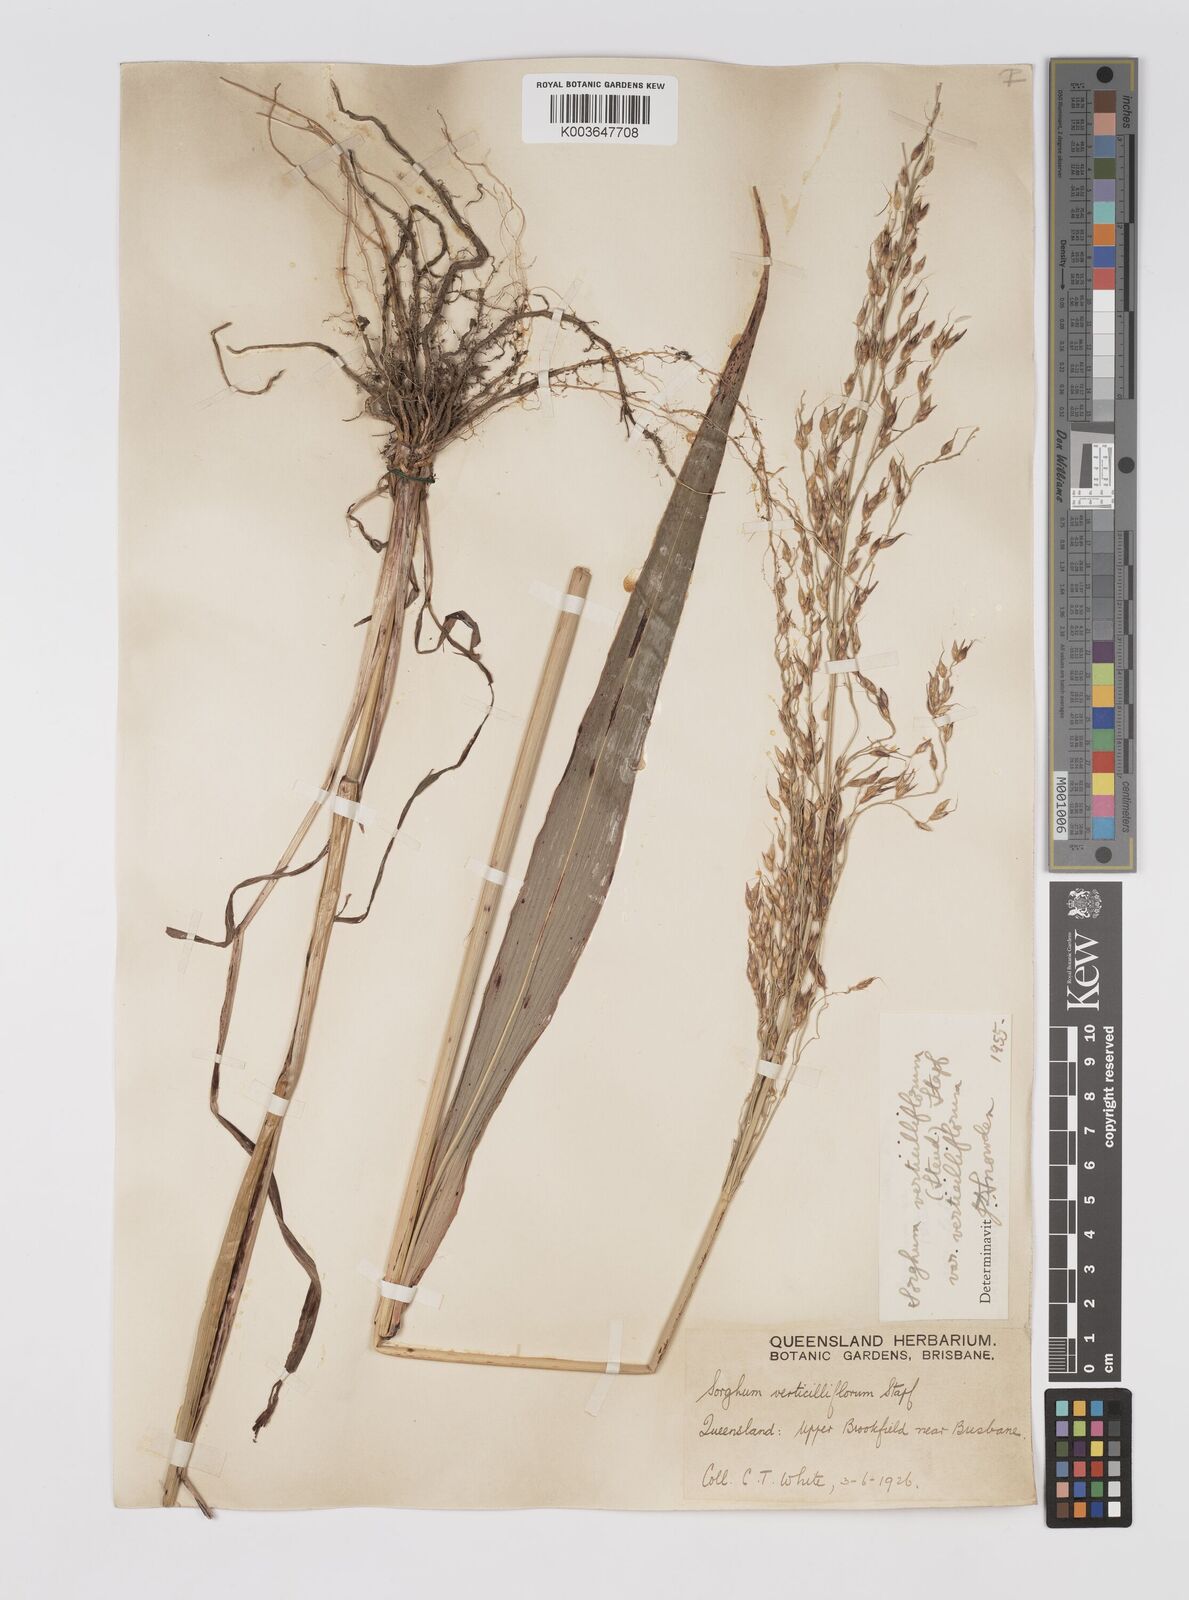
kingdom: Plantae
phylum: Tracheophyta
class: Liliopsida
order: Poales
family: Poaceae
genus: Sorghum
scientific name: Sorghum arundinaceum
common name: Sorghum
